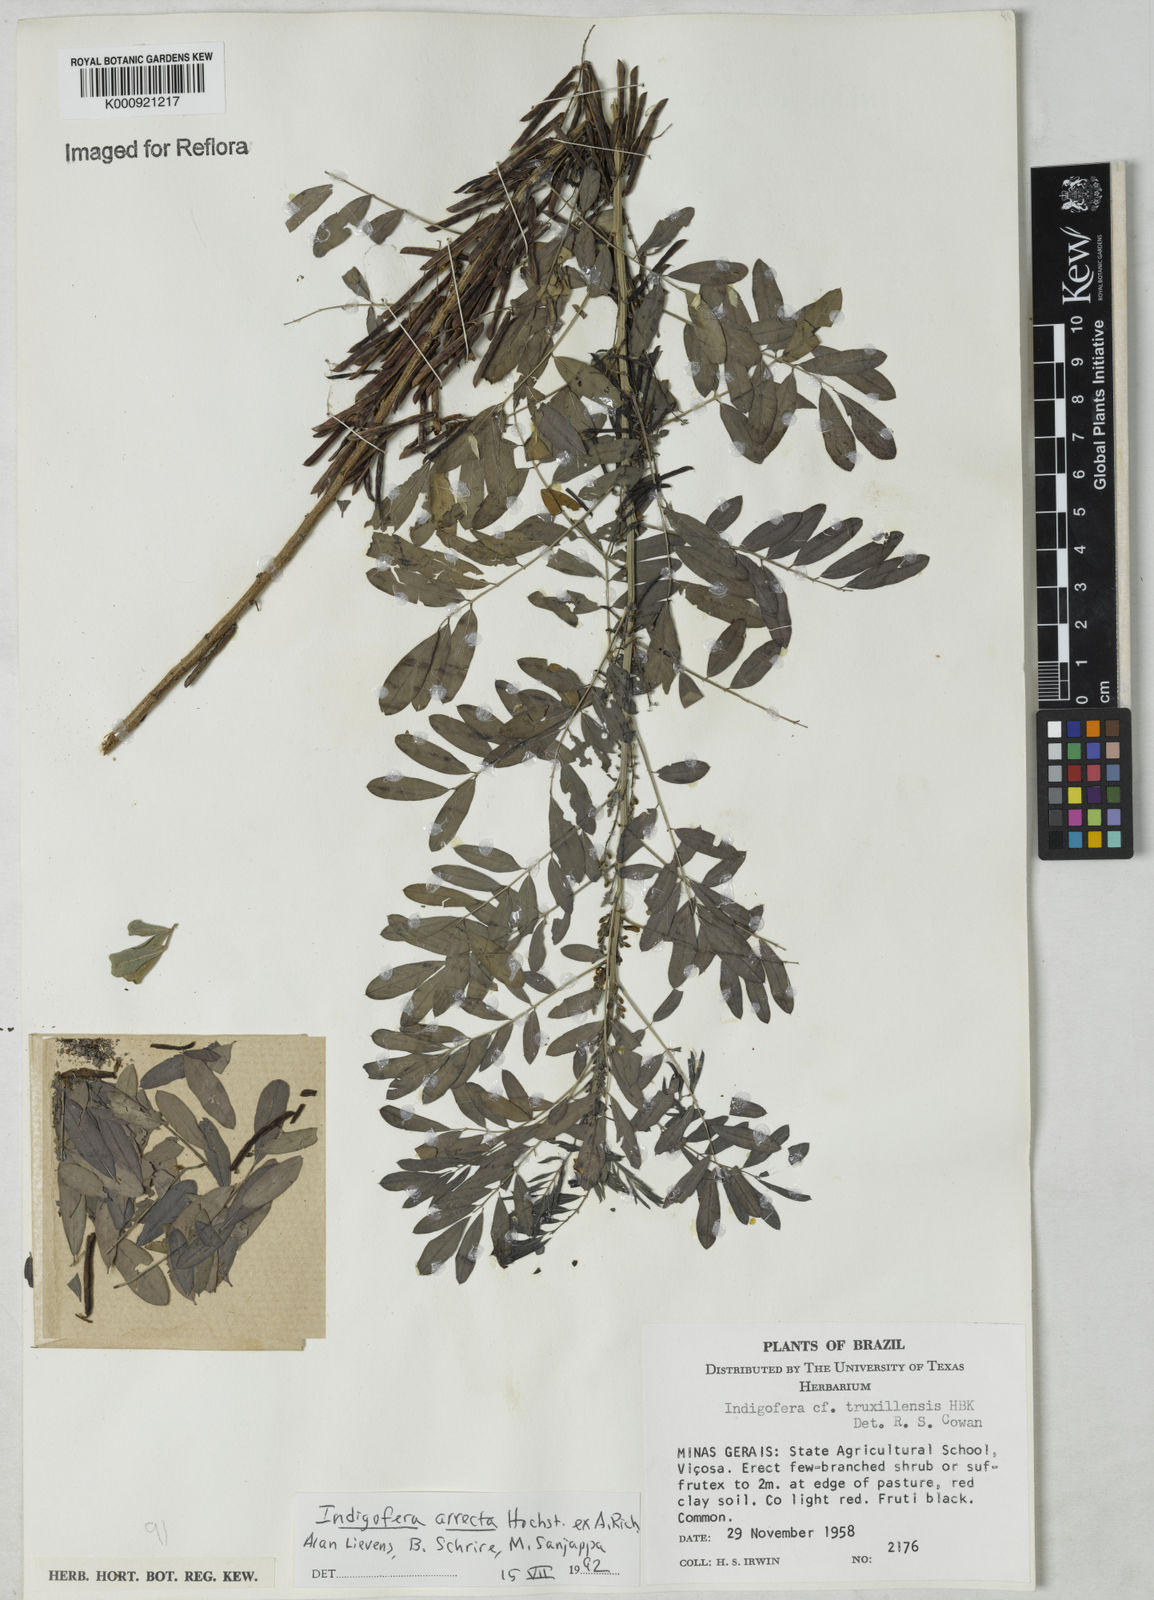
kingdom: Plantae
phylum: Tracheophyta
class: Magnoliopsida
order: Fabales
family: Fabaceae
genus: Indigofera
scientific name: Indigofera pretoriana
